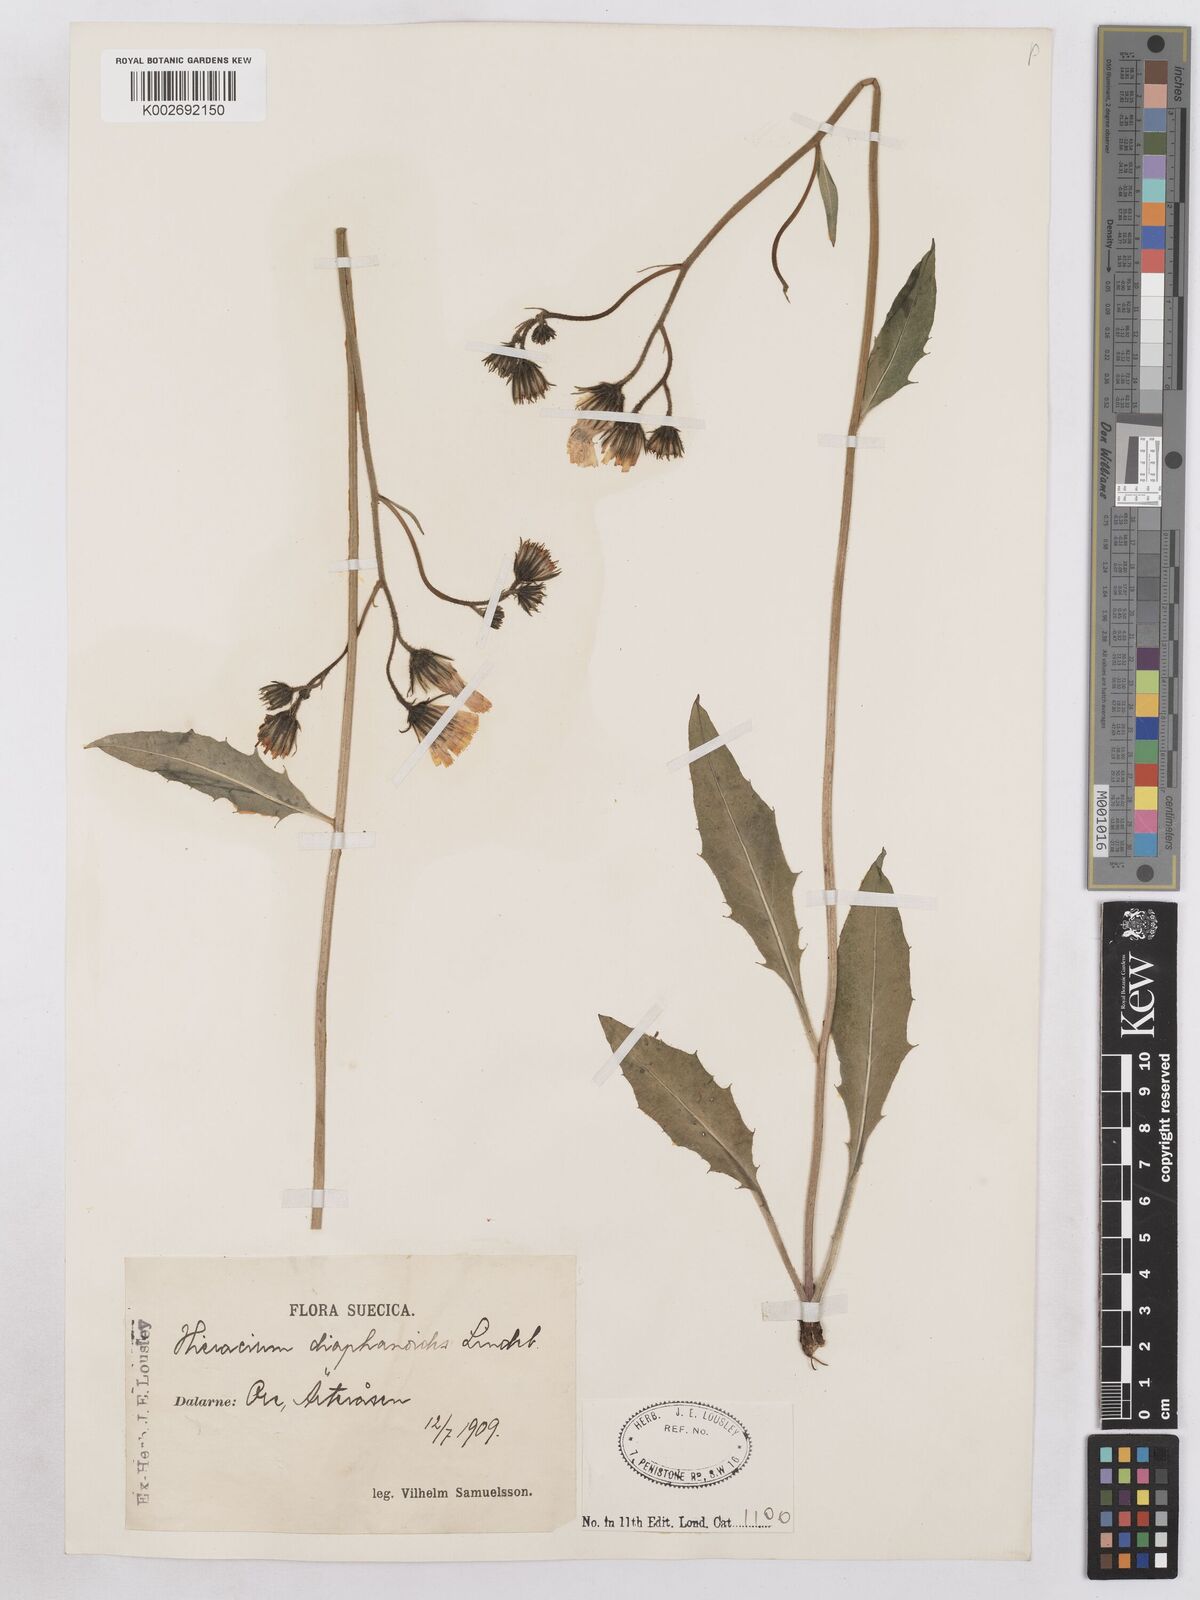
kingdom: Plantae
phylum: Tracheophyta
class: Magnoliopsida
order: Asterales
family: Asteraceae
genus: Hieracium
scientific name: Hieracium diaphanoides
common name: Fine-bracted hawkweed
